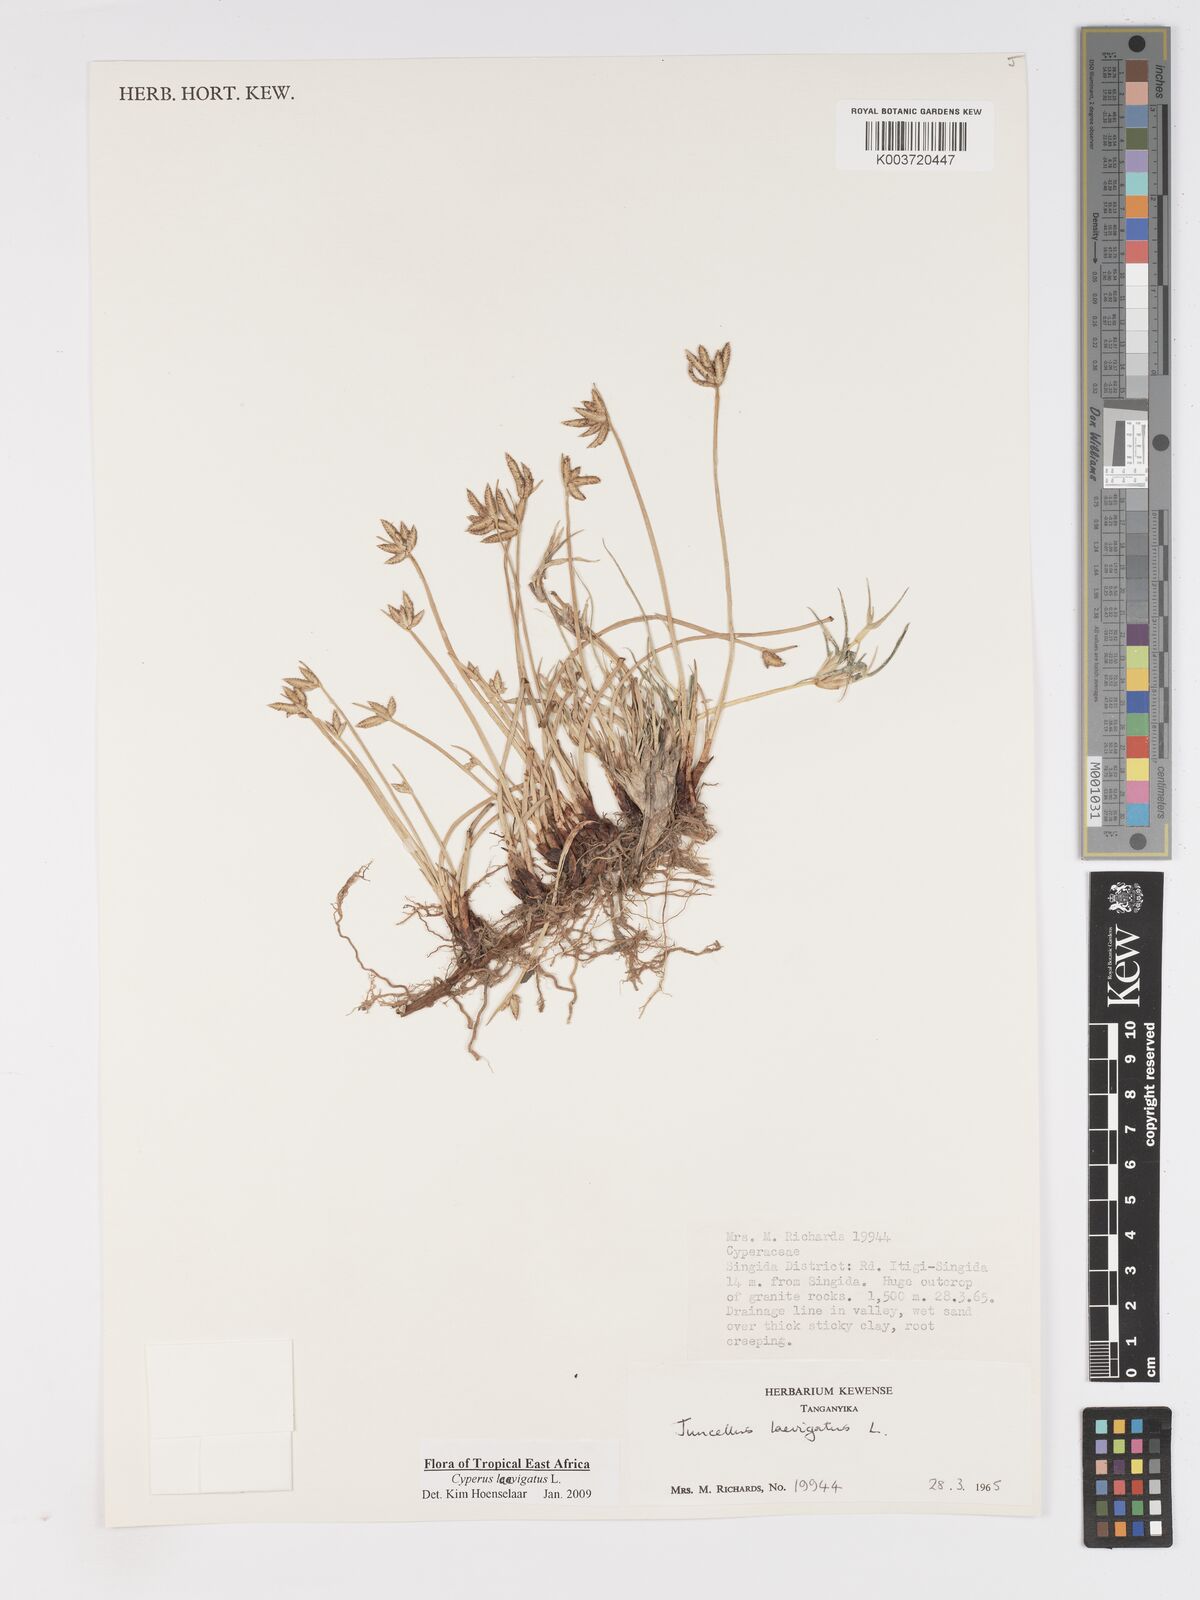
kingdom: Plantae
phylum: Tracheophyta
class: Liliopsida
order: Poales
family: Cyperaceae
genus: Cyperus
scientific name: Cyperus laevigatus
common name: Smooth flat sedge
